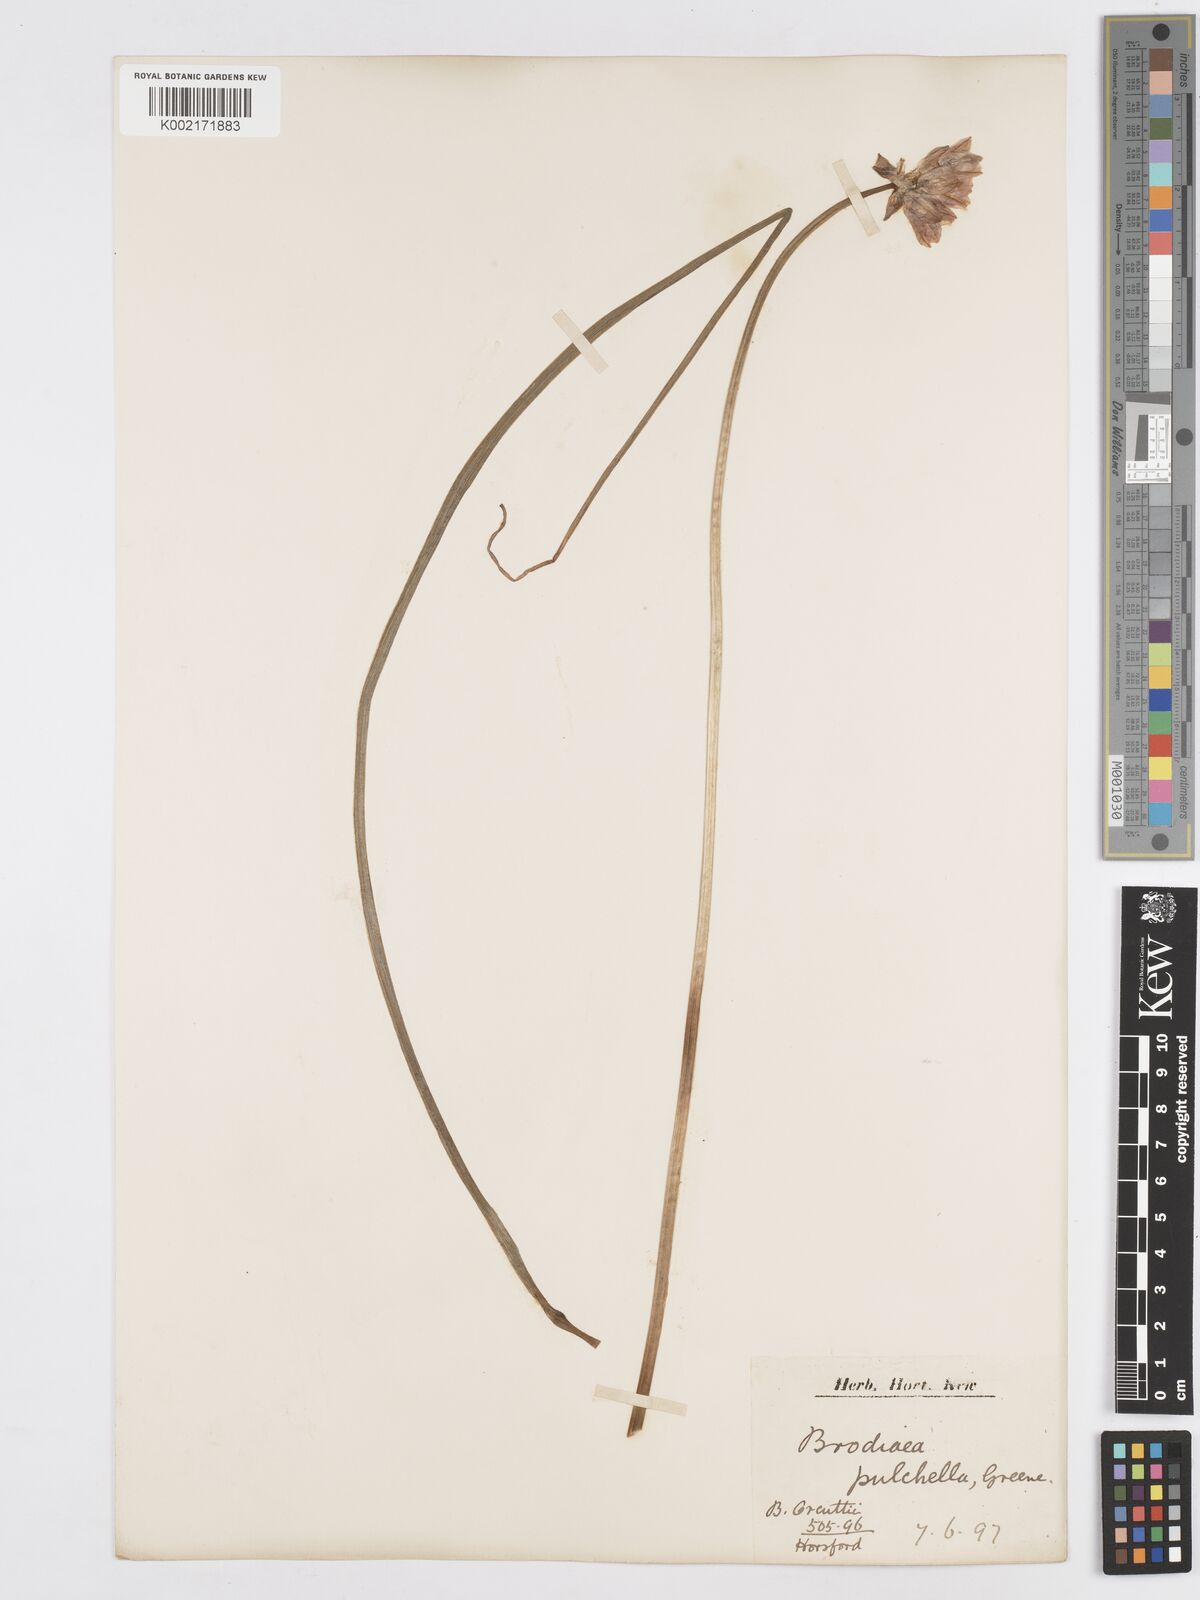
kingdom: Plantae
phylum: Tracheophyta
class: Liliopsida
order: Asparagales
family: Asparagaceae
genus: Dichelostemma
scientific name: Dichelostemma congestum
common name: Fork-tooth ookow
